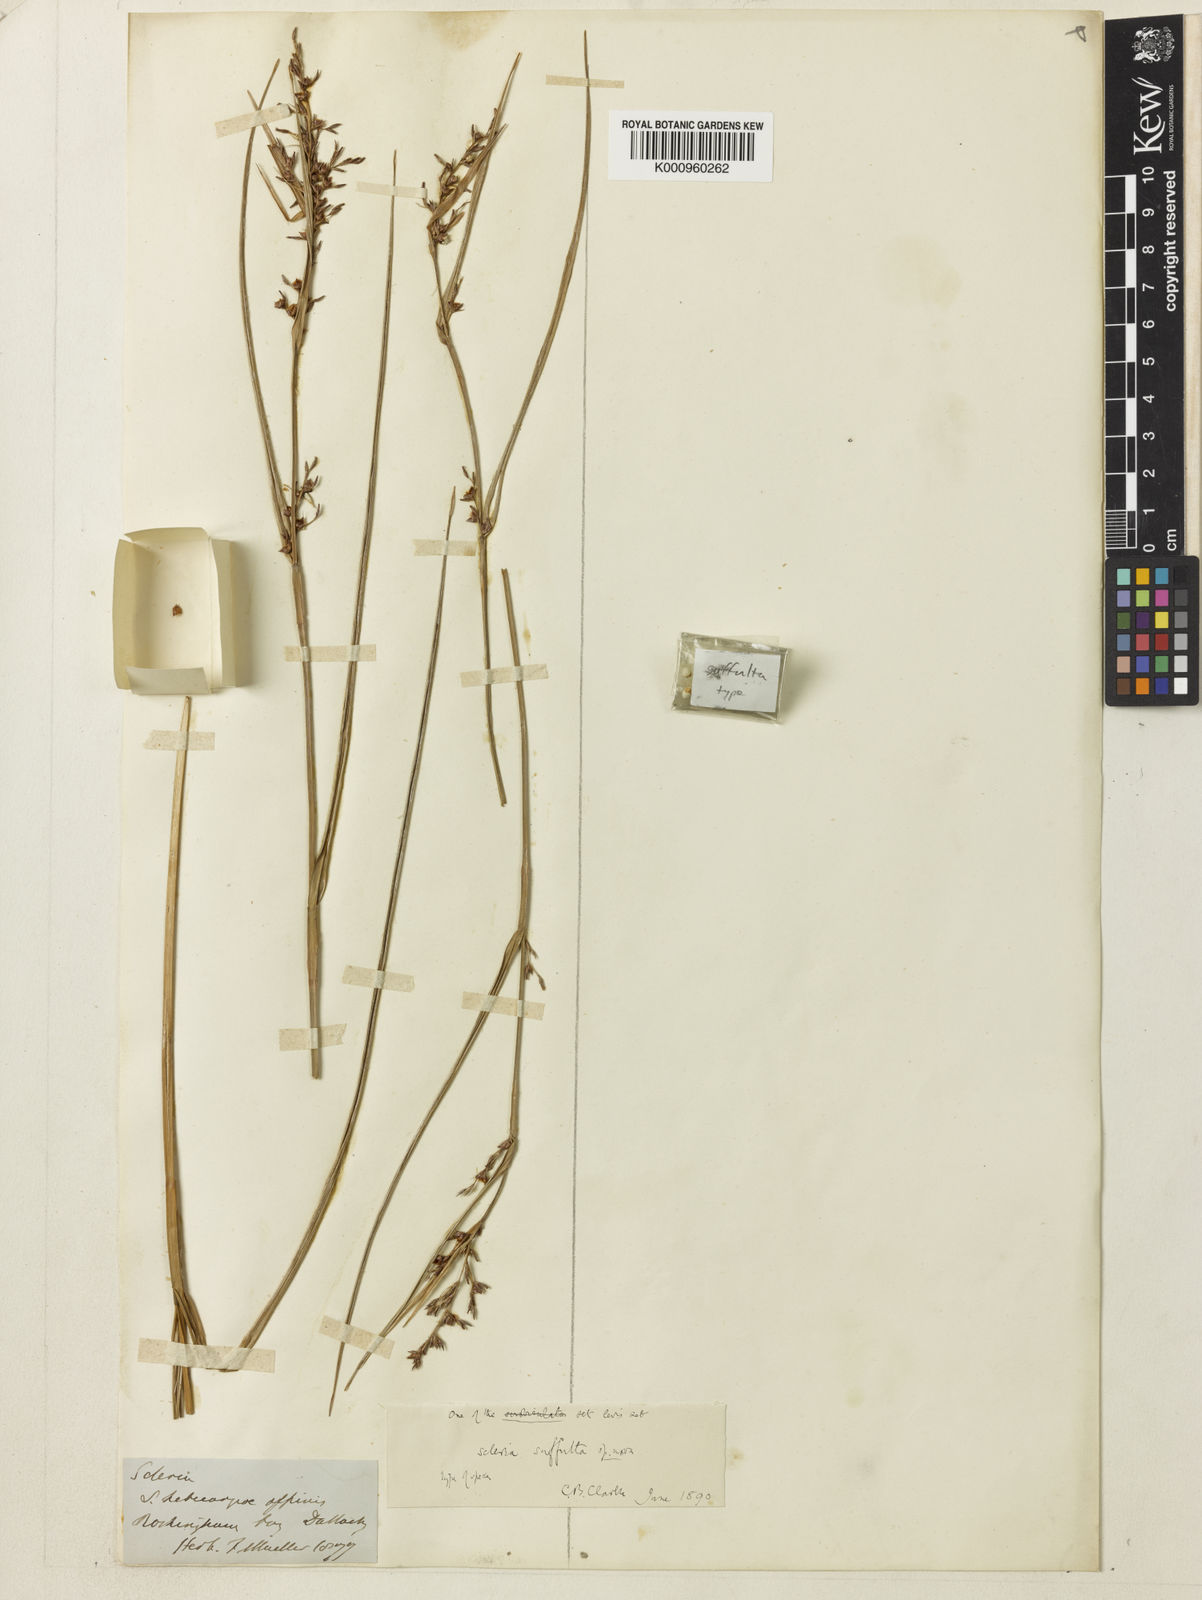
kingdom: Plantae
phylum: Tracheophyta
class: Liliopsida
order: Poales
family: Cyperaceae
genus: Scleria
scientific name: Scleria suffulta
